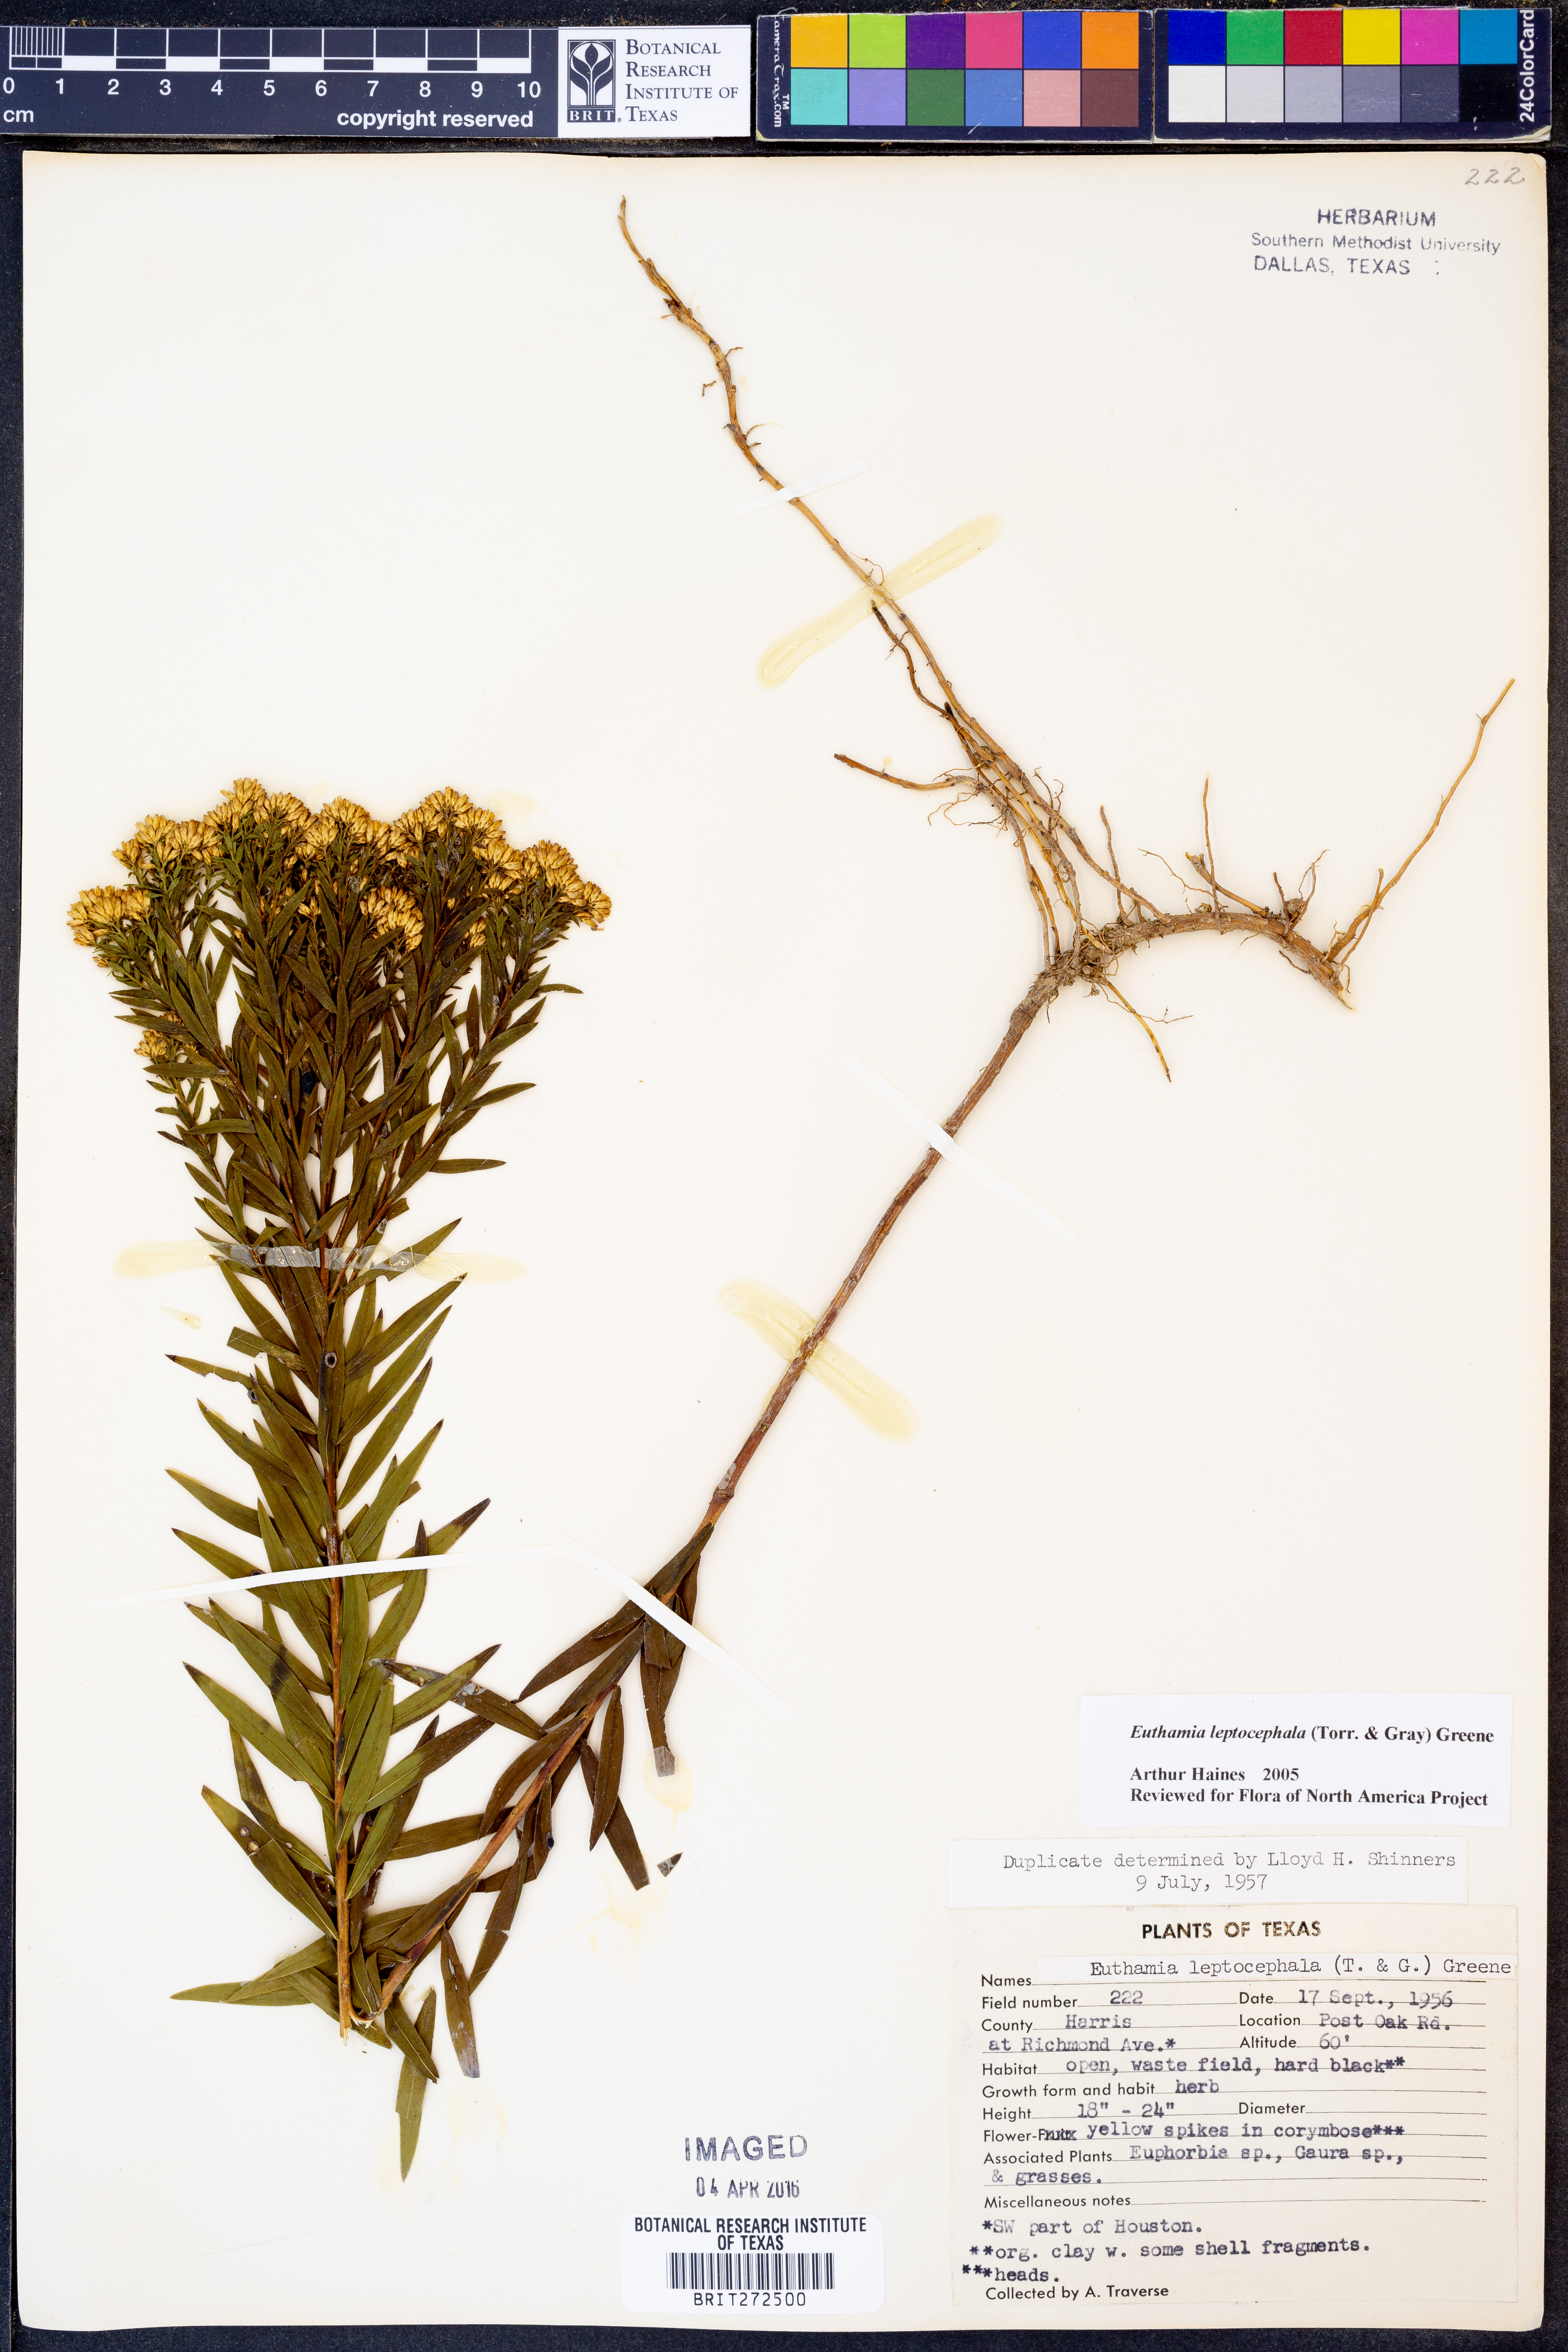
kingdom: Plantae
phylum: Tracheophyta
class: Magnoliopsida
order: Asterales
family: Asteraceae
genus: Euthamia
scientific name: Euthamia leptocephala
